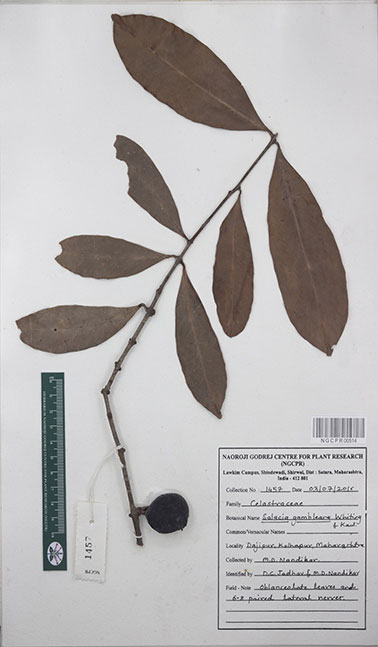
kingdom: Plantae
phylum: Tracheophyta
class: Magnoliopsida
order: Celastrales
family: Celastraceae
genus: Salacia
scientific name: Salacia gambleana
